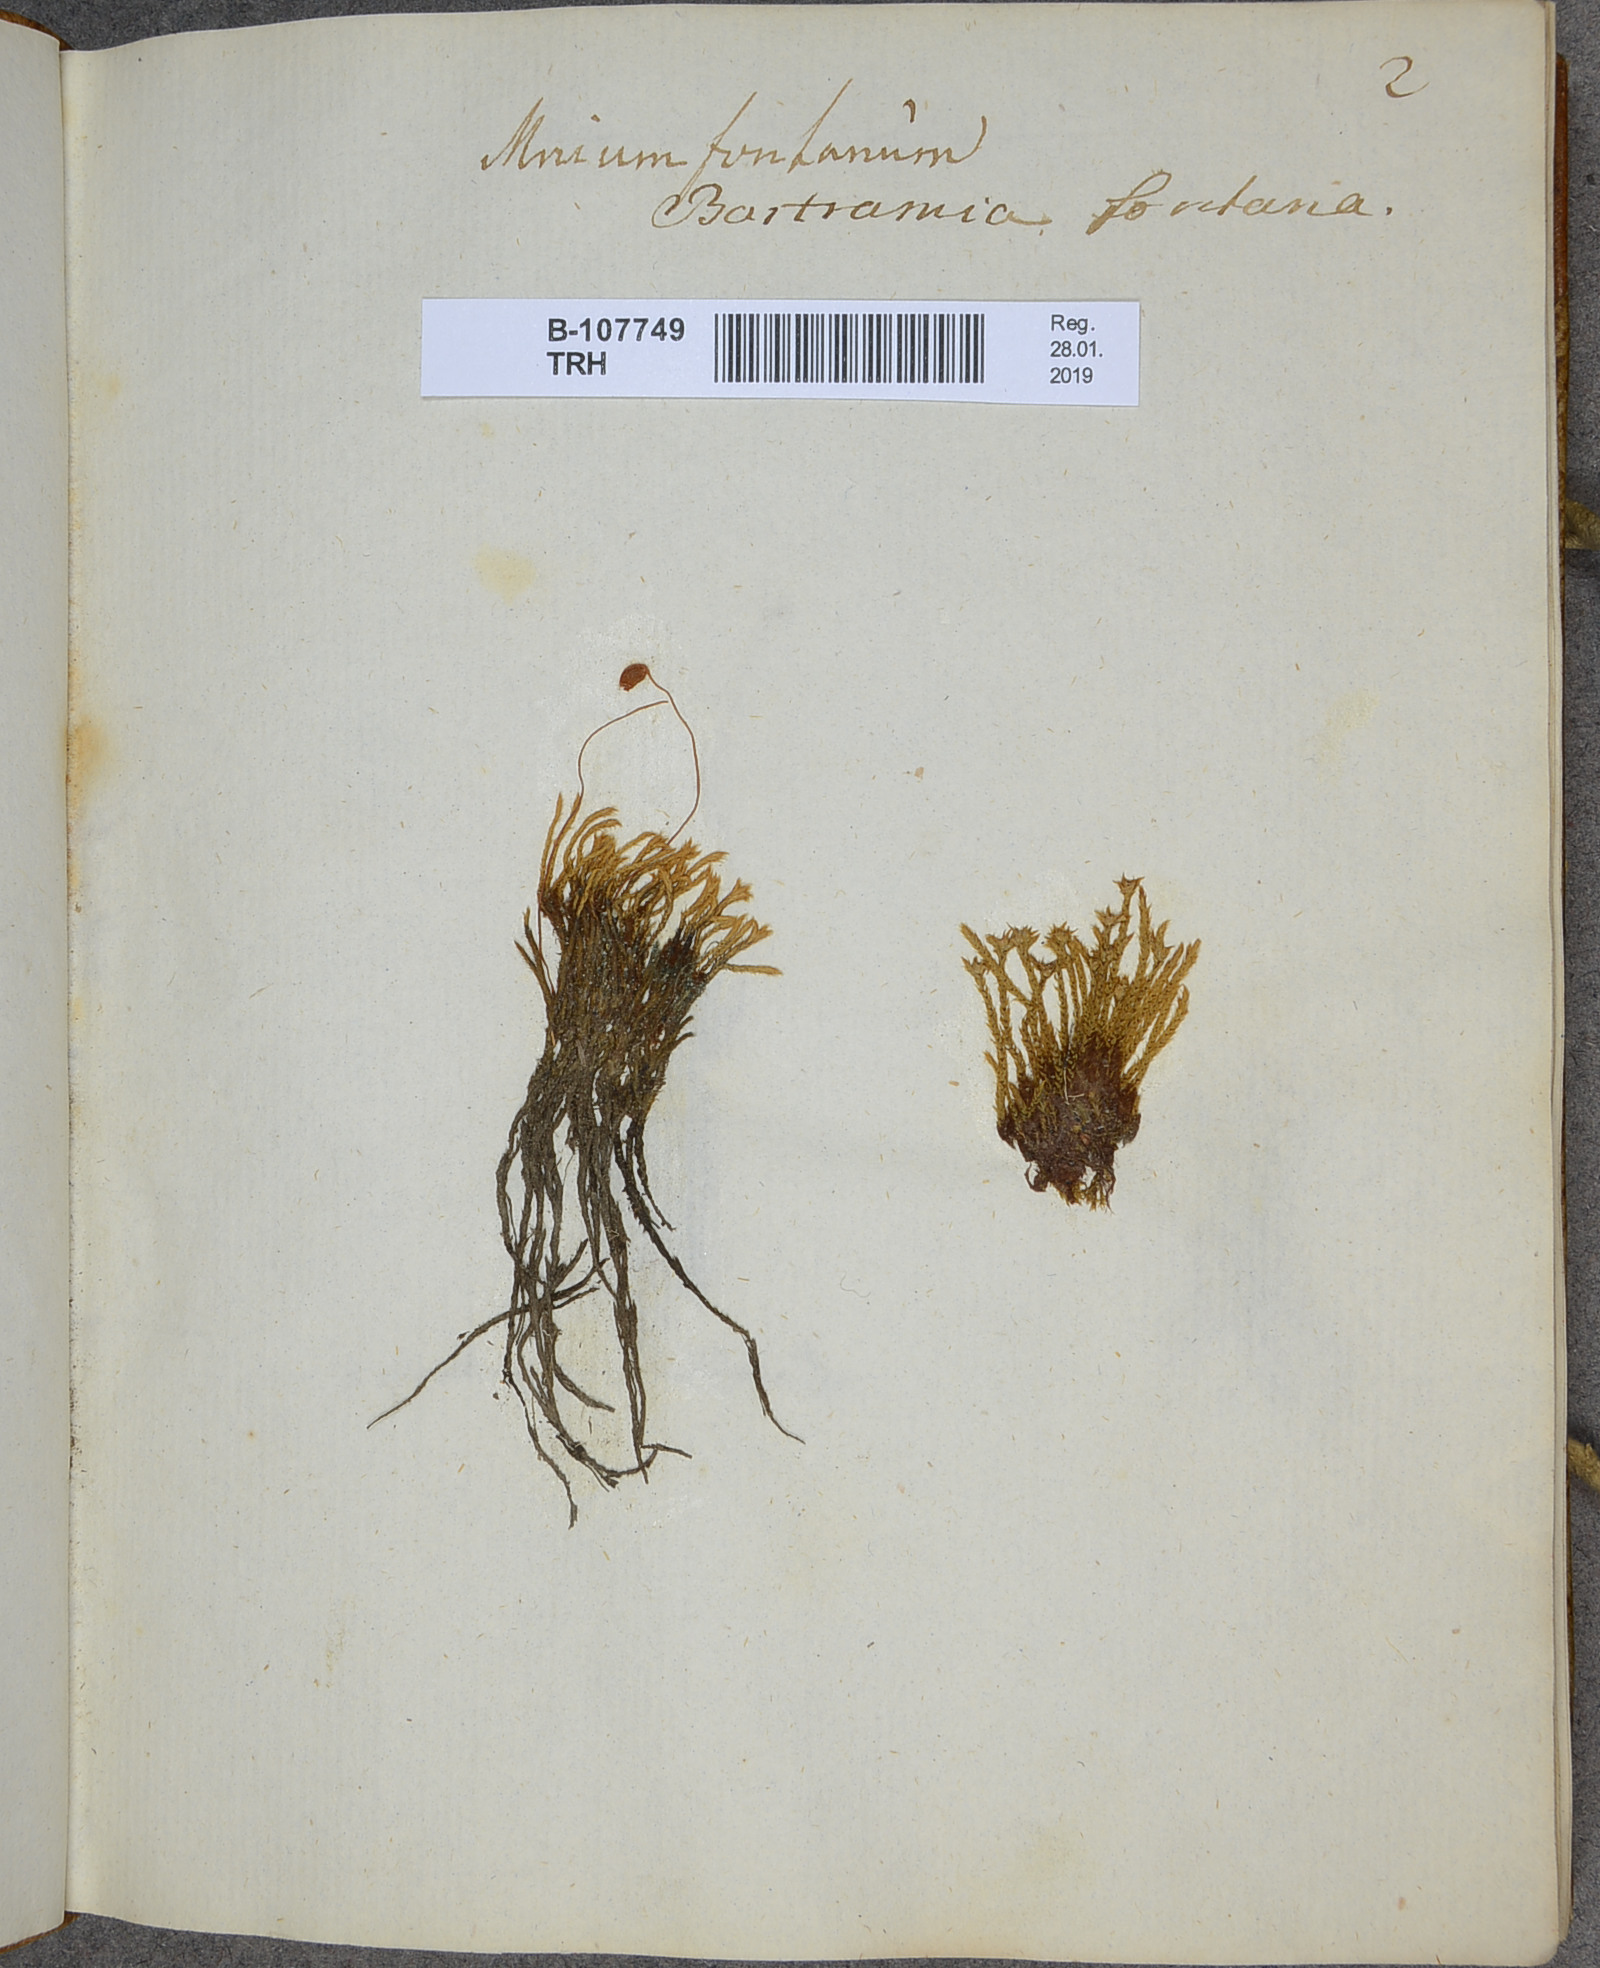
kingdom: Plantae
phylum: Bryophyta
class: Bryopsida
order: Bartramiales
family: Bartramiaceae
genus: Philonotis
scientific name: Philonotis fontana
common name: Fountain apple-moss
